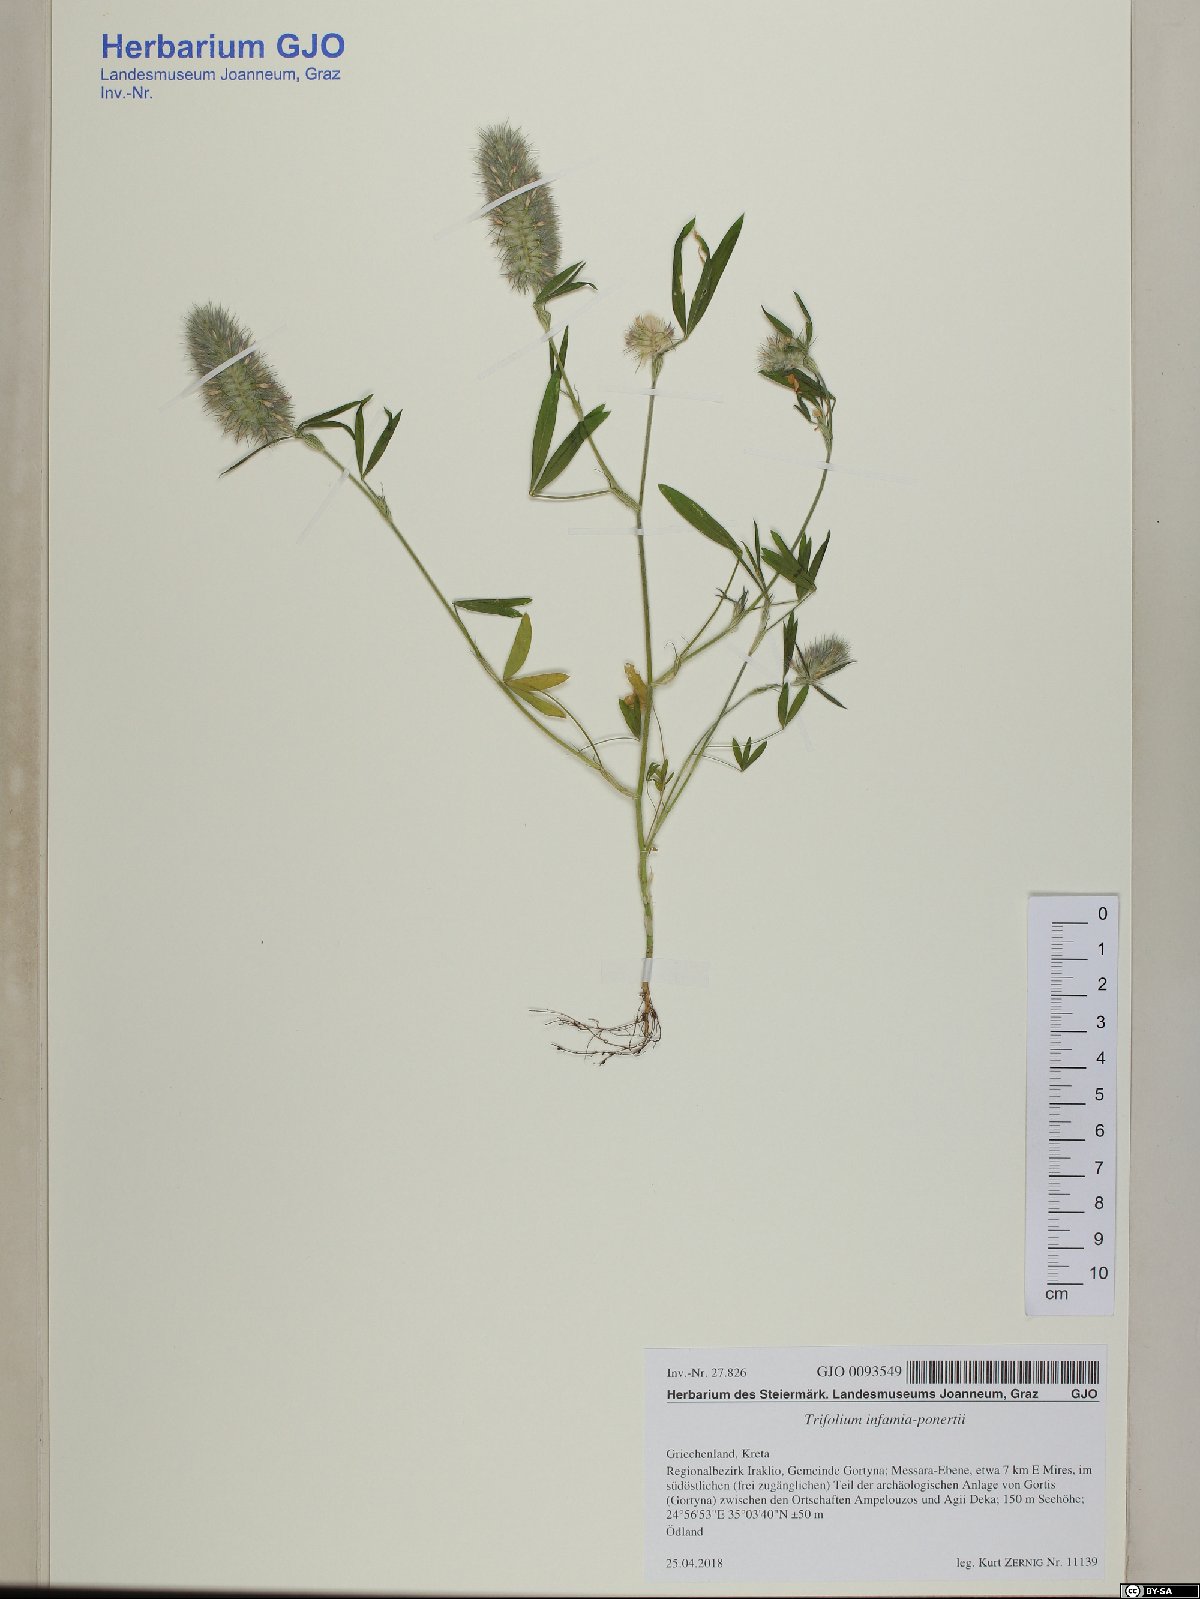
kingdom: Plantae
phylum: Tracheophyta
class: Magnoliopsida
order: Fabales
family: Fabaceae
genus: Trifolium
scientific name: Trifolium infamia-ponertii
